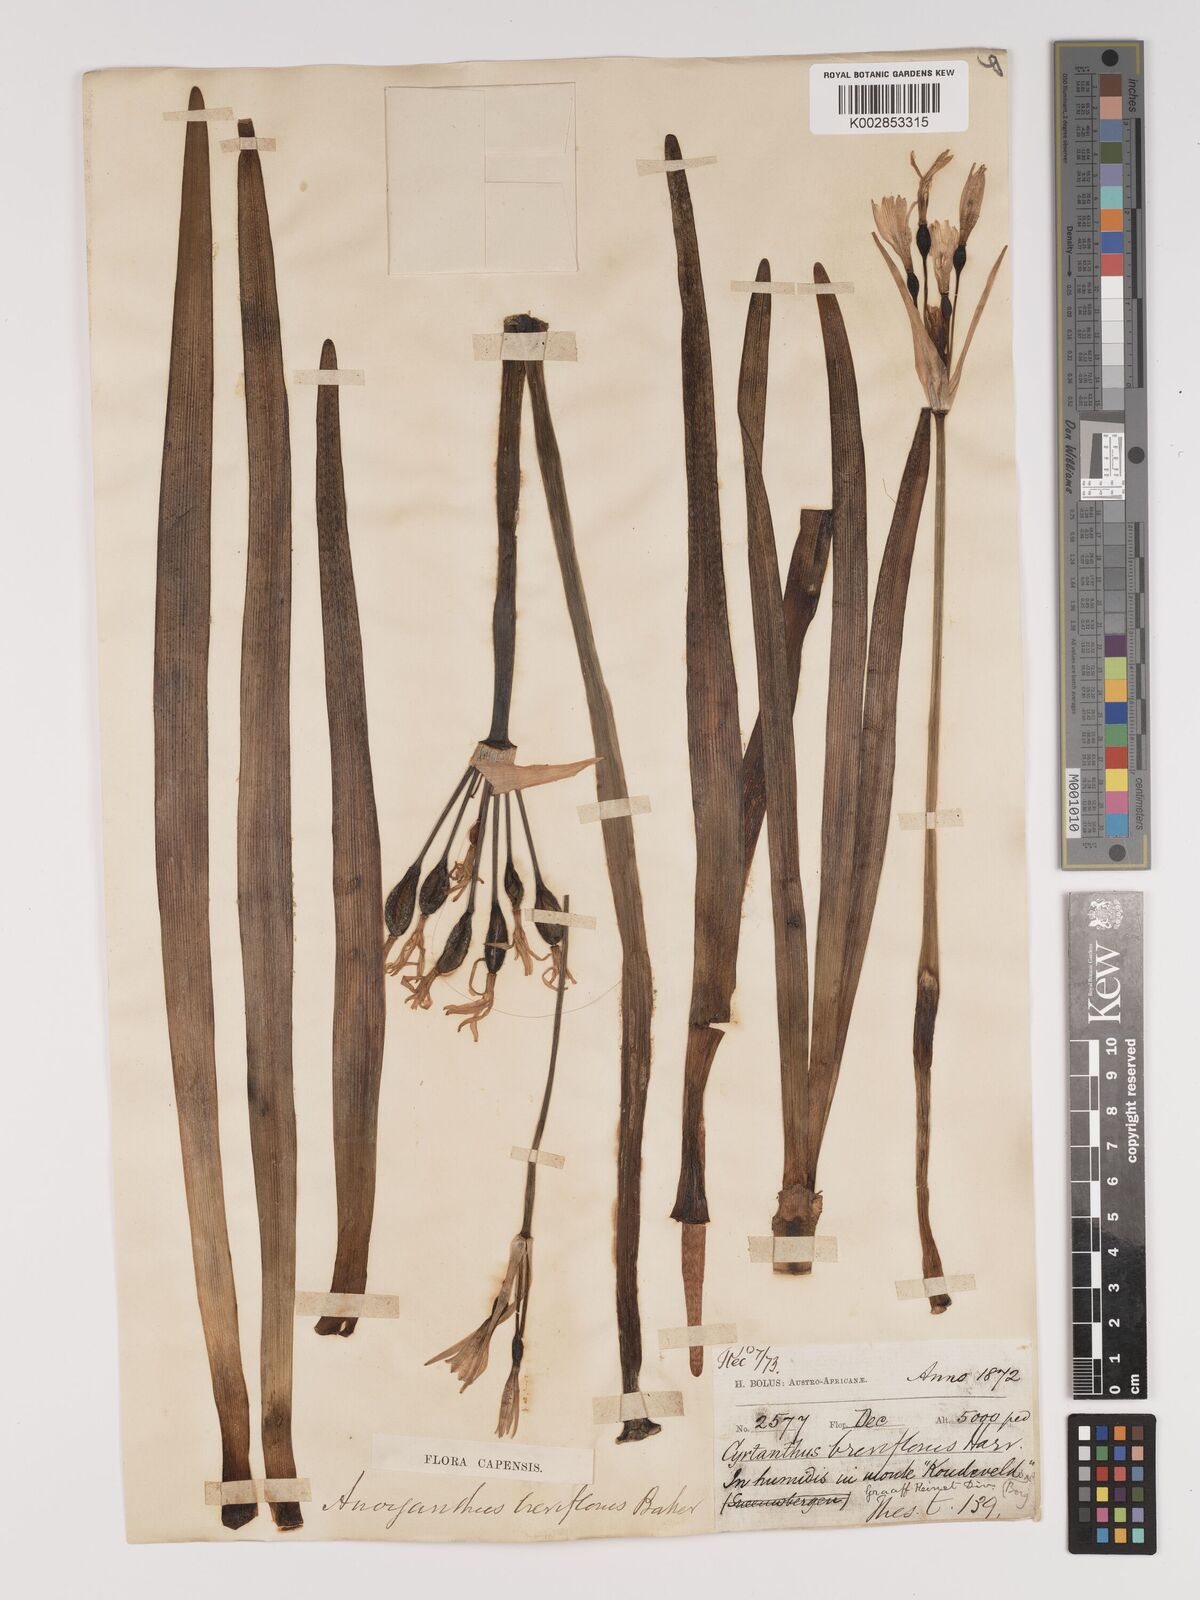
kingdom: Plantae
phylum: Tracheophyta
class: Liliopsida
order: Asparagales
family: Amaryllidaceae
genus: Cyrtanthus
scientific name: Cyrtanthus breviflorus
